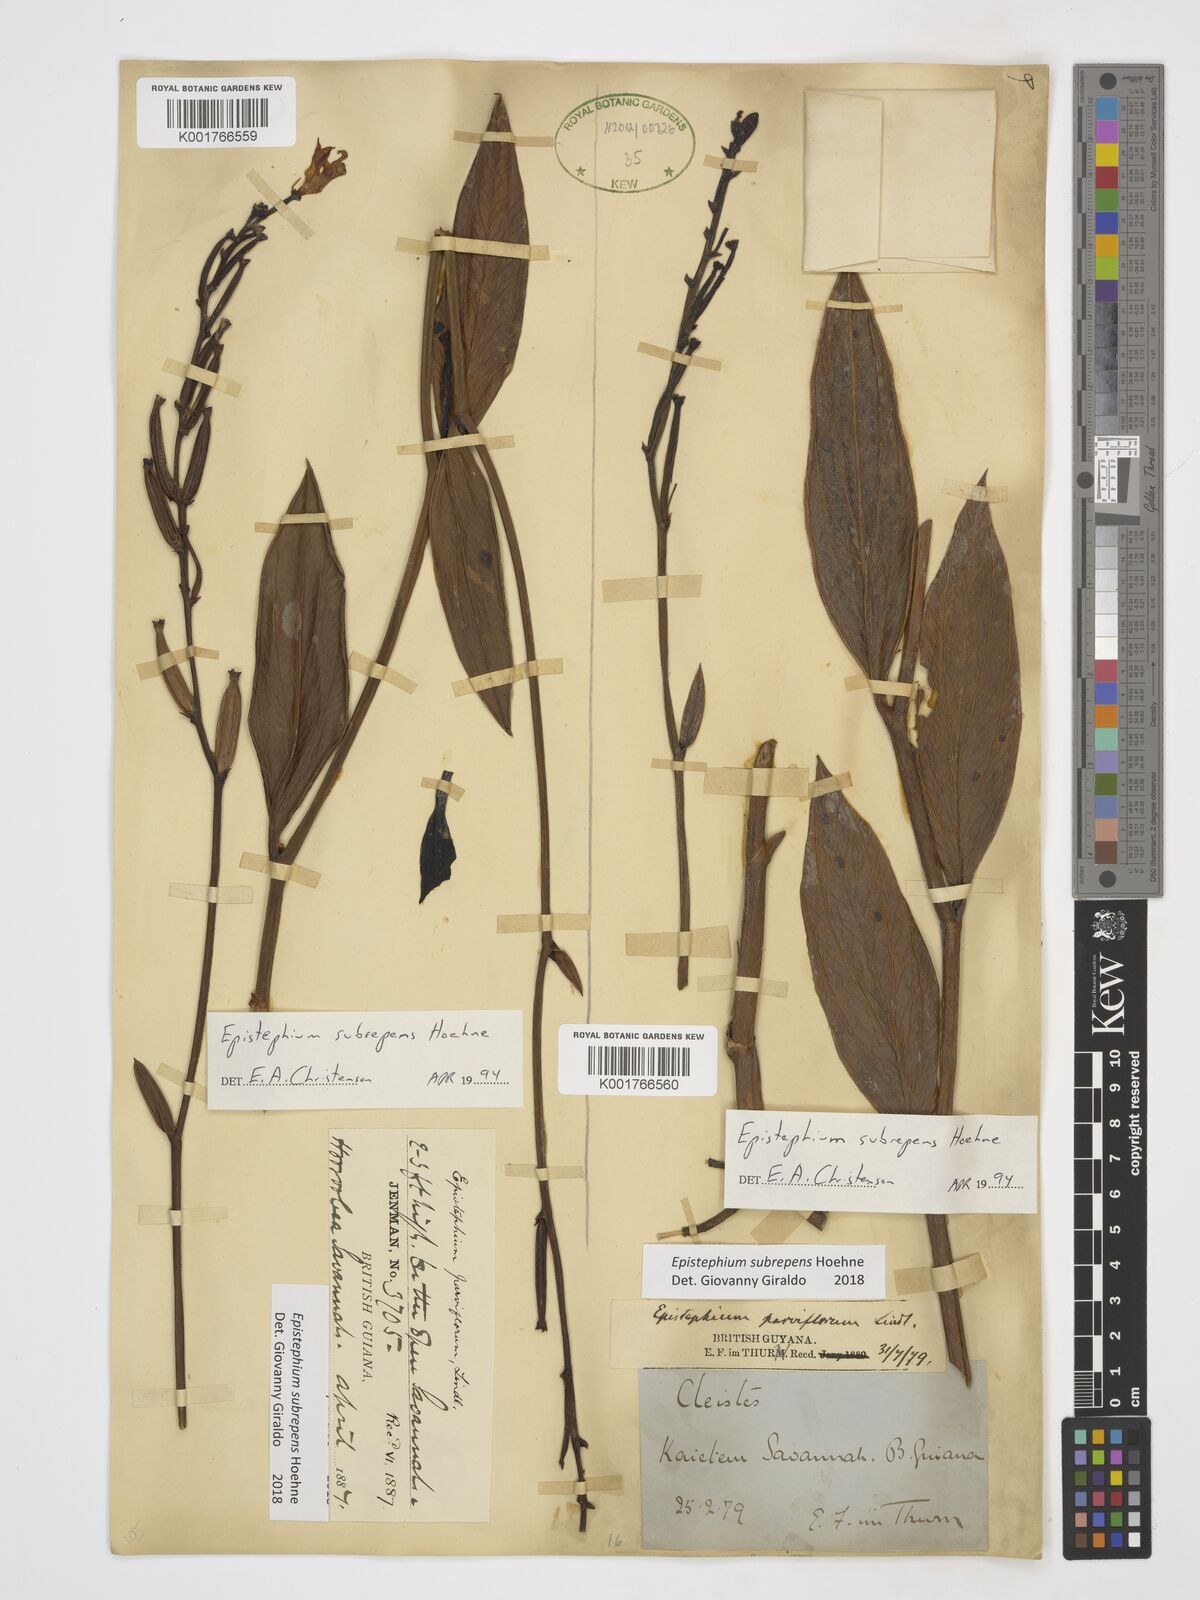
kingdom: Plantae
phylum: Tracheophyta
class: Liliopsida
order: Asparagales
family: Orchidaceae
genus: Epistephium
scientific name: Epistephium subrepens
